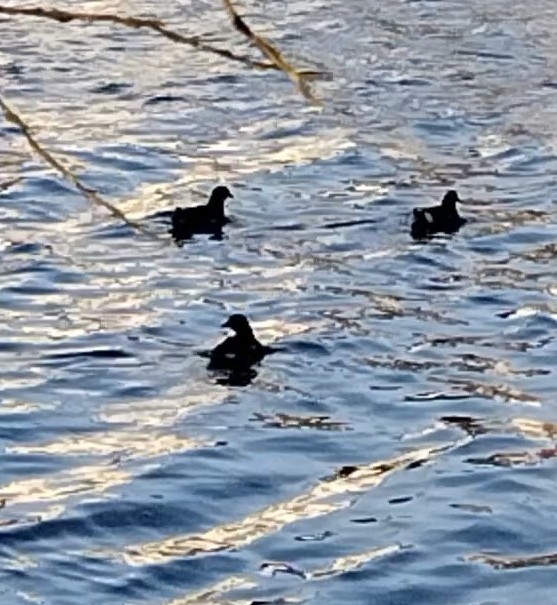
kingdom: Animalia
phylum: Chordata
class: Aves
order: Gruiformes
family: Rallidae
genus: Gallinula
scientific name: Gallinula chloropus
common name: Grønbenet rørhøne
